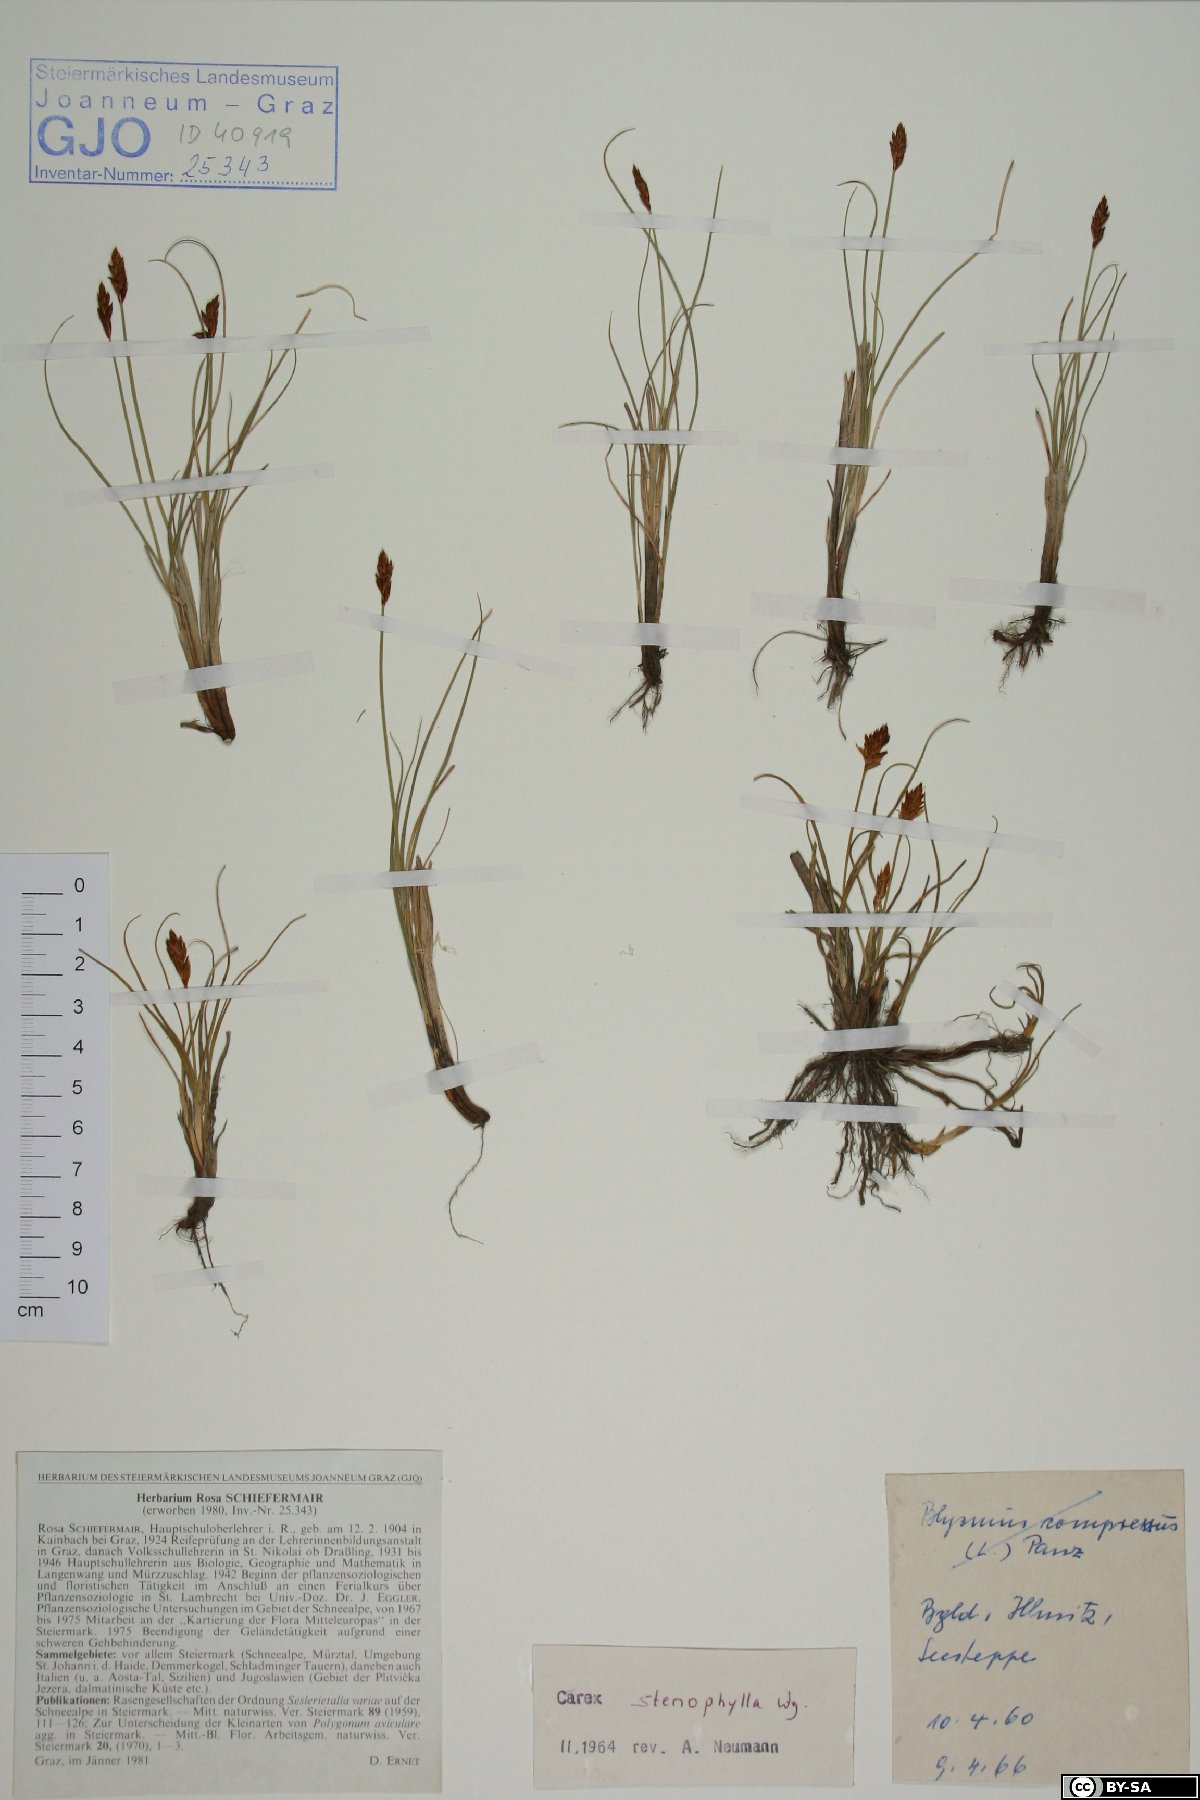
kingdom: Plantae
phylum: Tracheophyta
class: Liliopsida
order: Poales
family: Cyperaceae
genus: Carex
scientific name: Carex stenophylla
